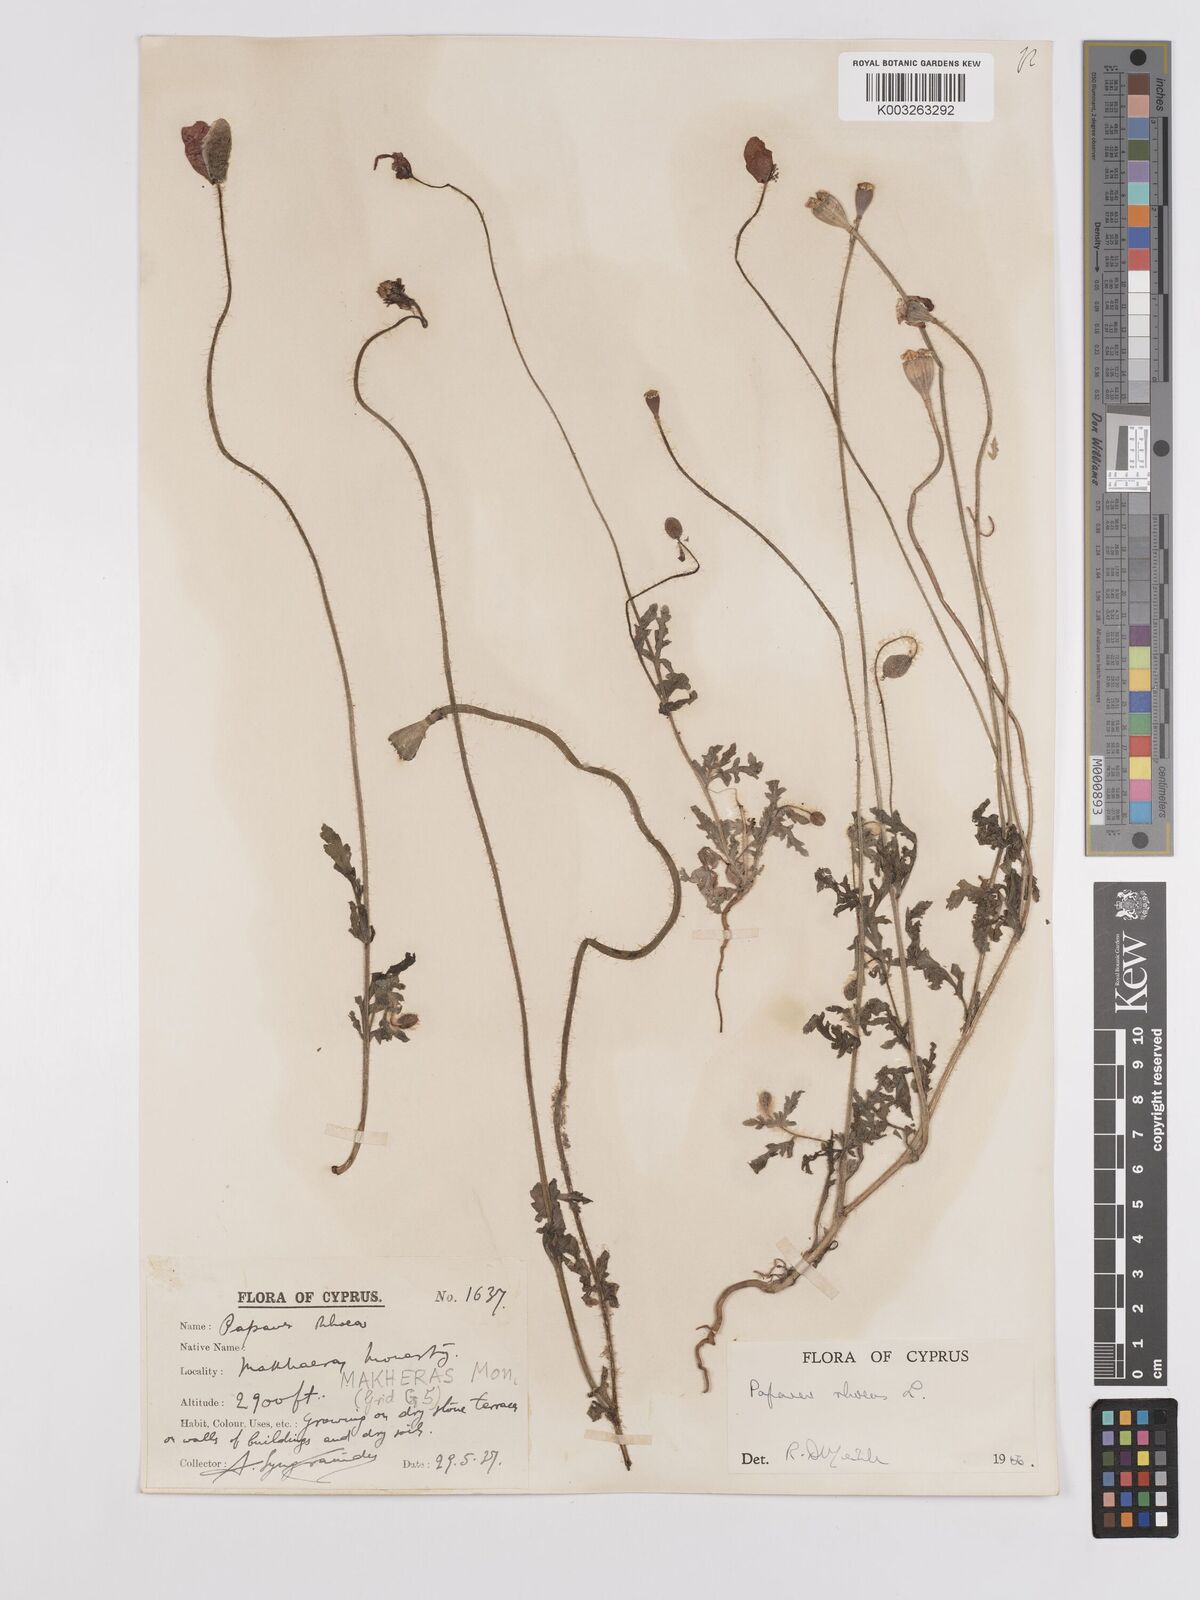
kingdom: Plantae
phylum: Tracheophyta
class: Magnoliopsida
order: Ranunculales
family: Papaveraceae
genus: Papaver
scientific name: Papaver rhoeas
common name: Corn poppy
